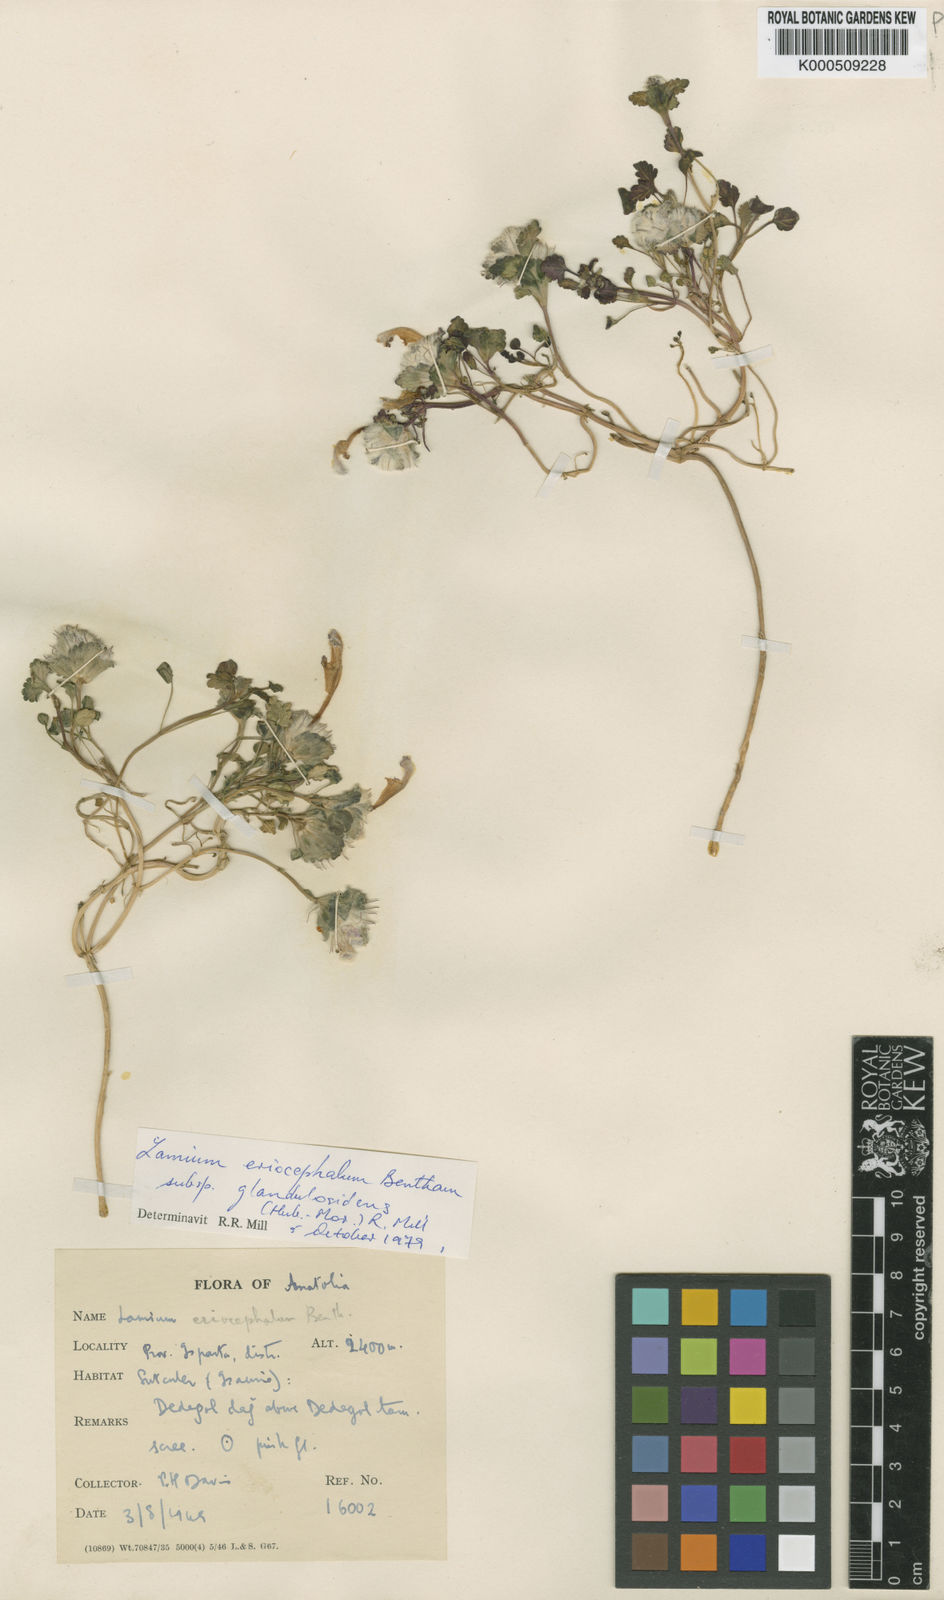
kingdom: Plantae
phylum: Tracheophyta
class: Magnoliopsida
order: Lamiales
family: Lamiaceae
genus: Lamium
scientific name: Lamium eriocephalum
